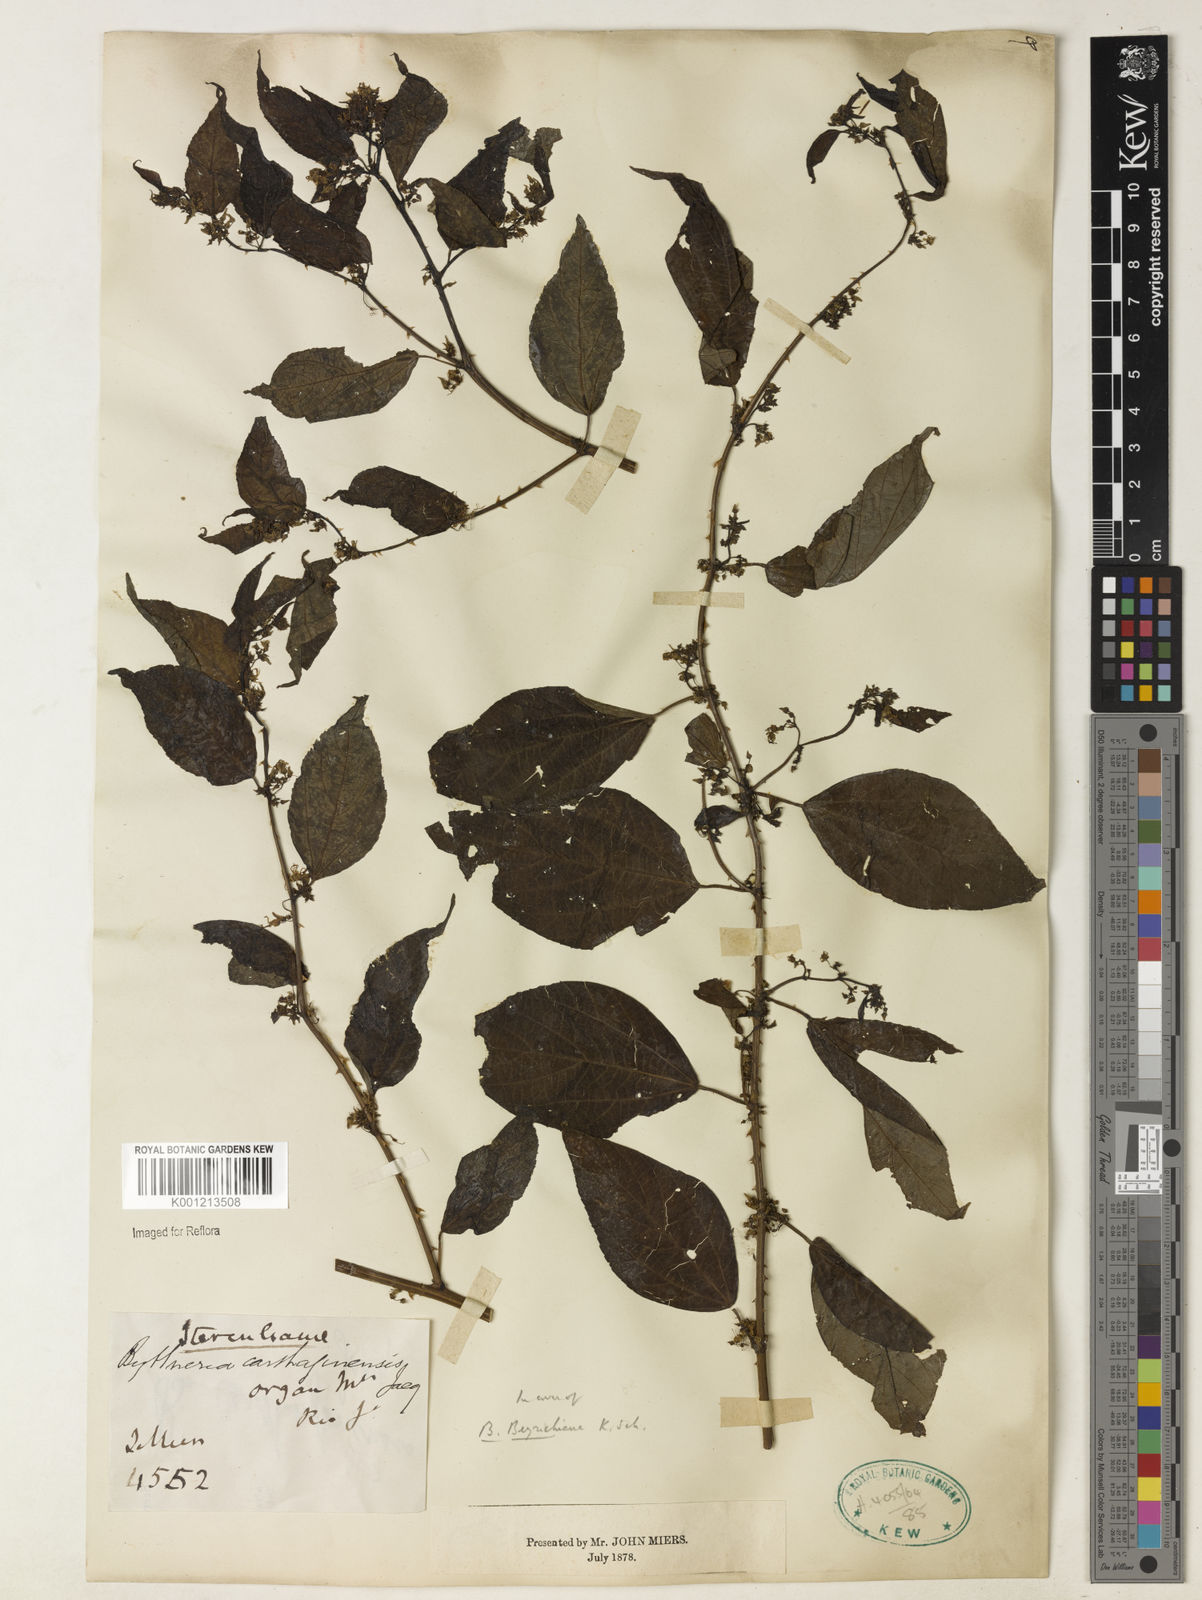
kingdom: Plantae
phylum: Tracheophyta
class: Magnoliopsida
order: Malvales
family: Malvaceae
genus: Byttneria
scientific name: Byttneria beyrichiana
